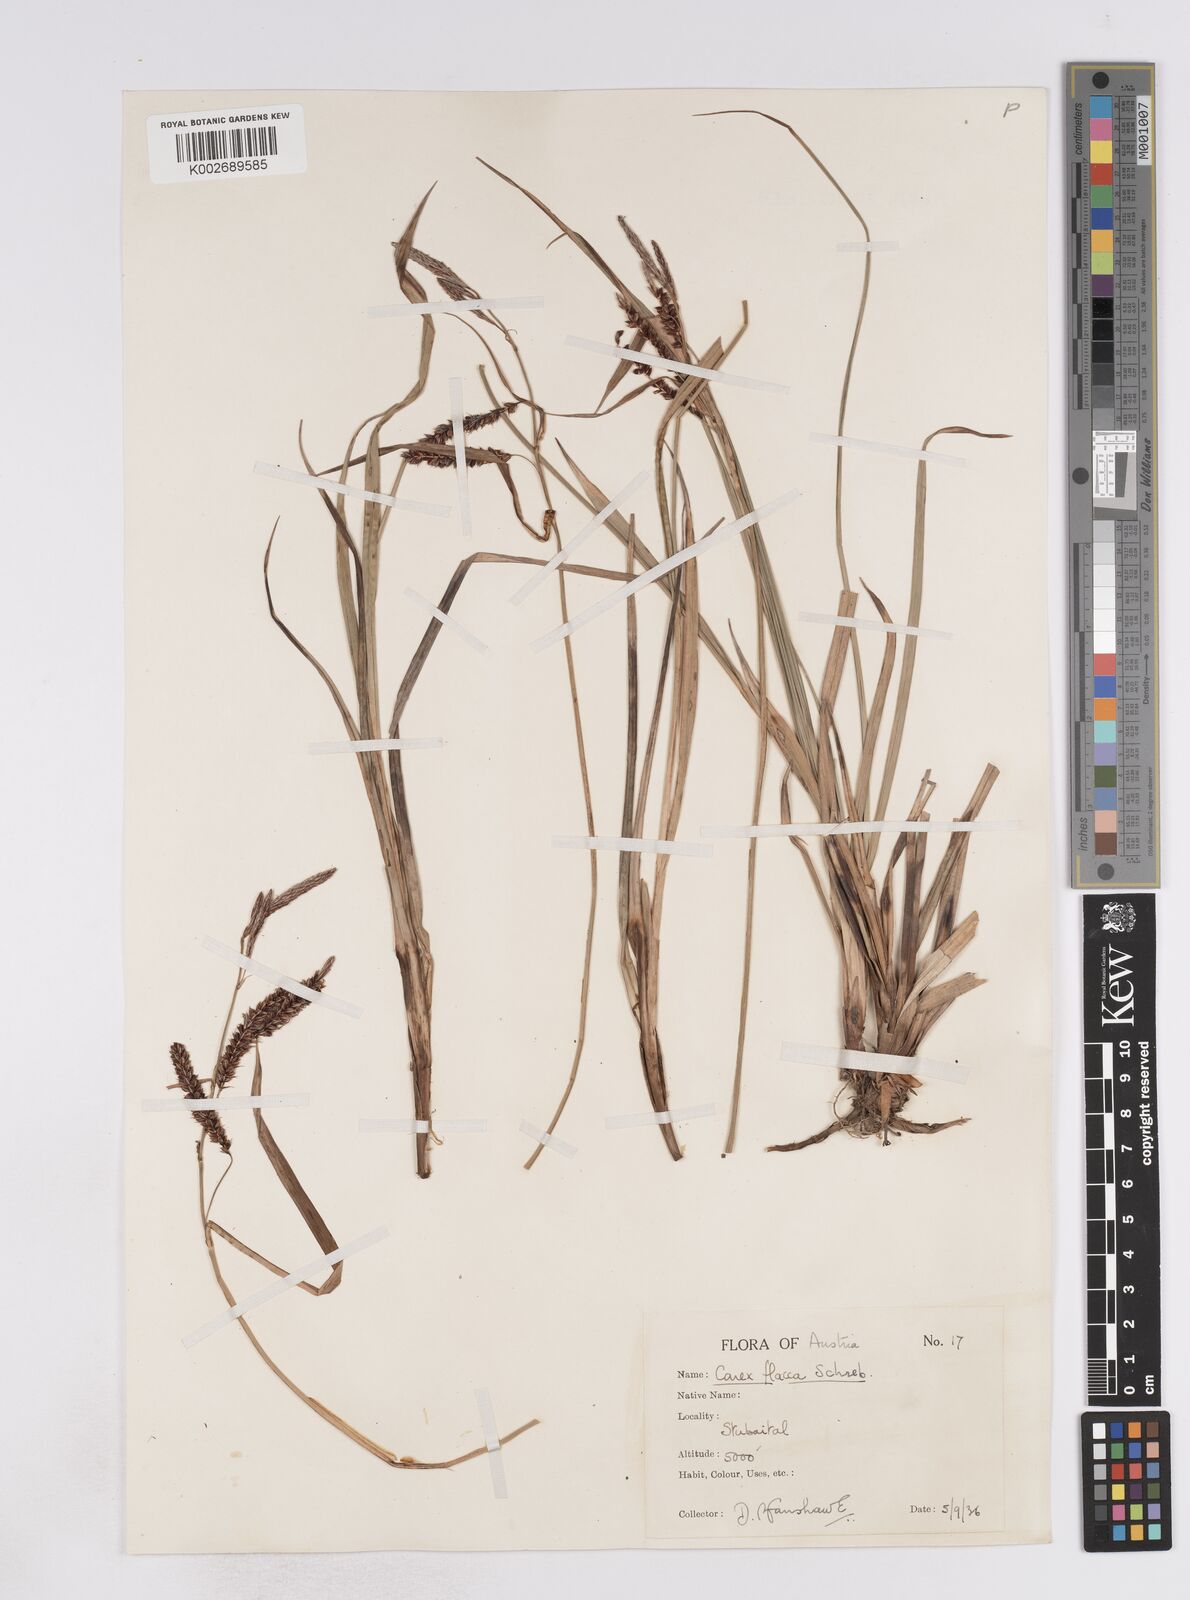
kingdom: Plantae
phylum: Tracheophyta
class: Liliopsida
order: Poales
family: Cyperaceae
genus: Carex
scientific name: Carex flacca
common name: Glaucous sedge
